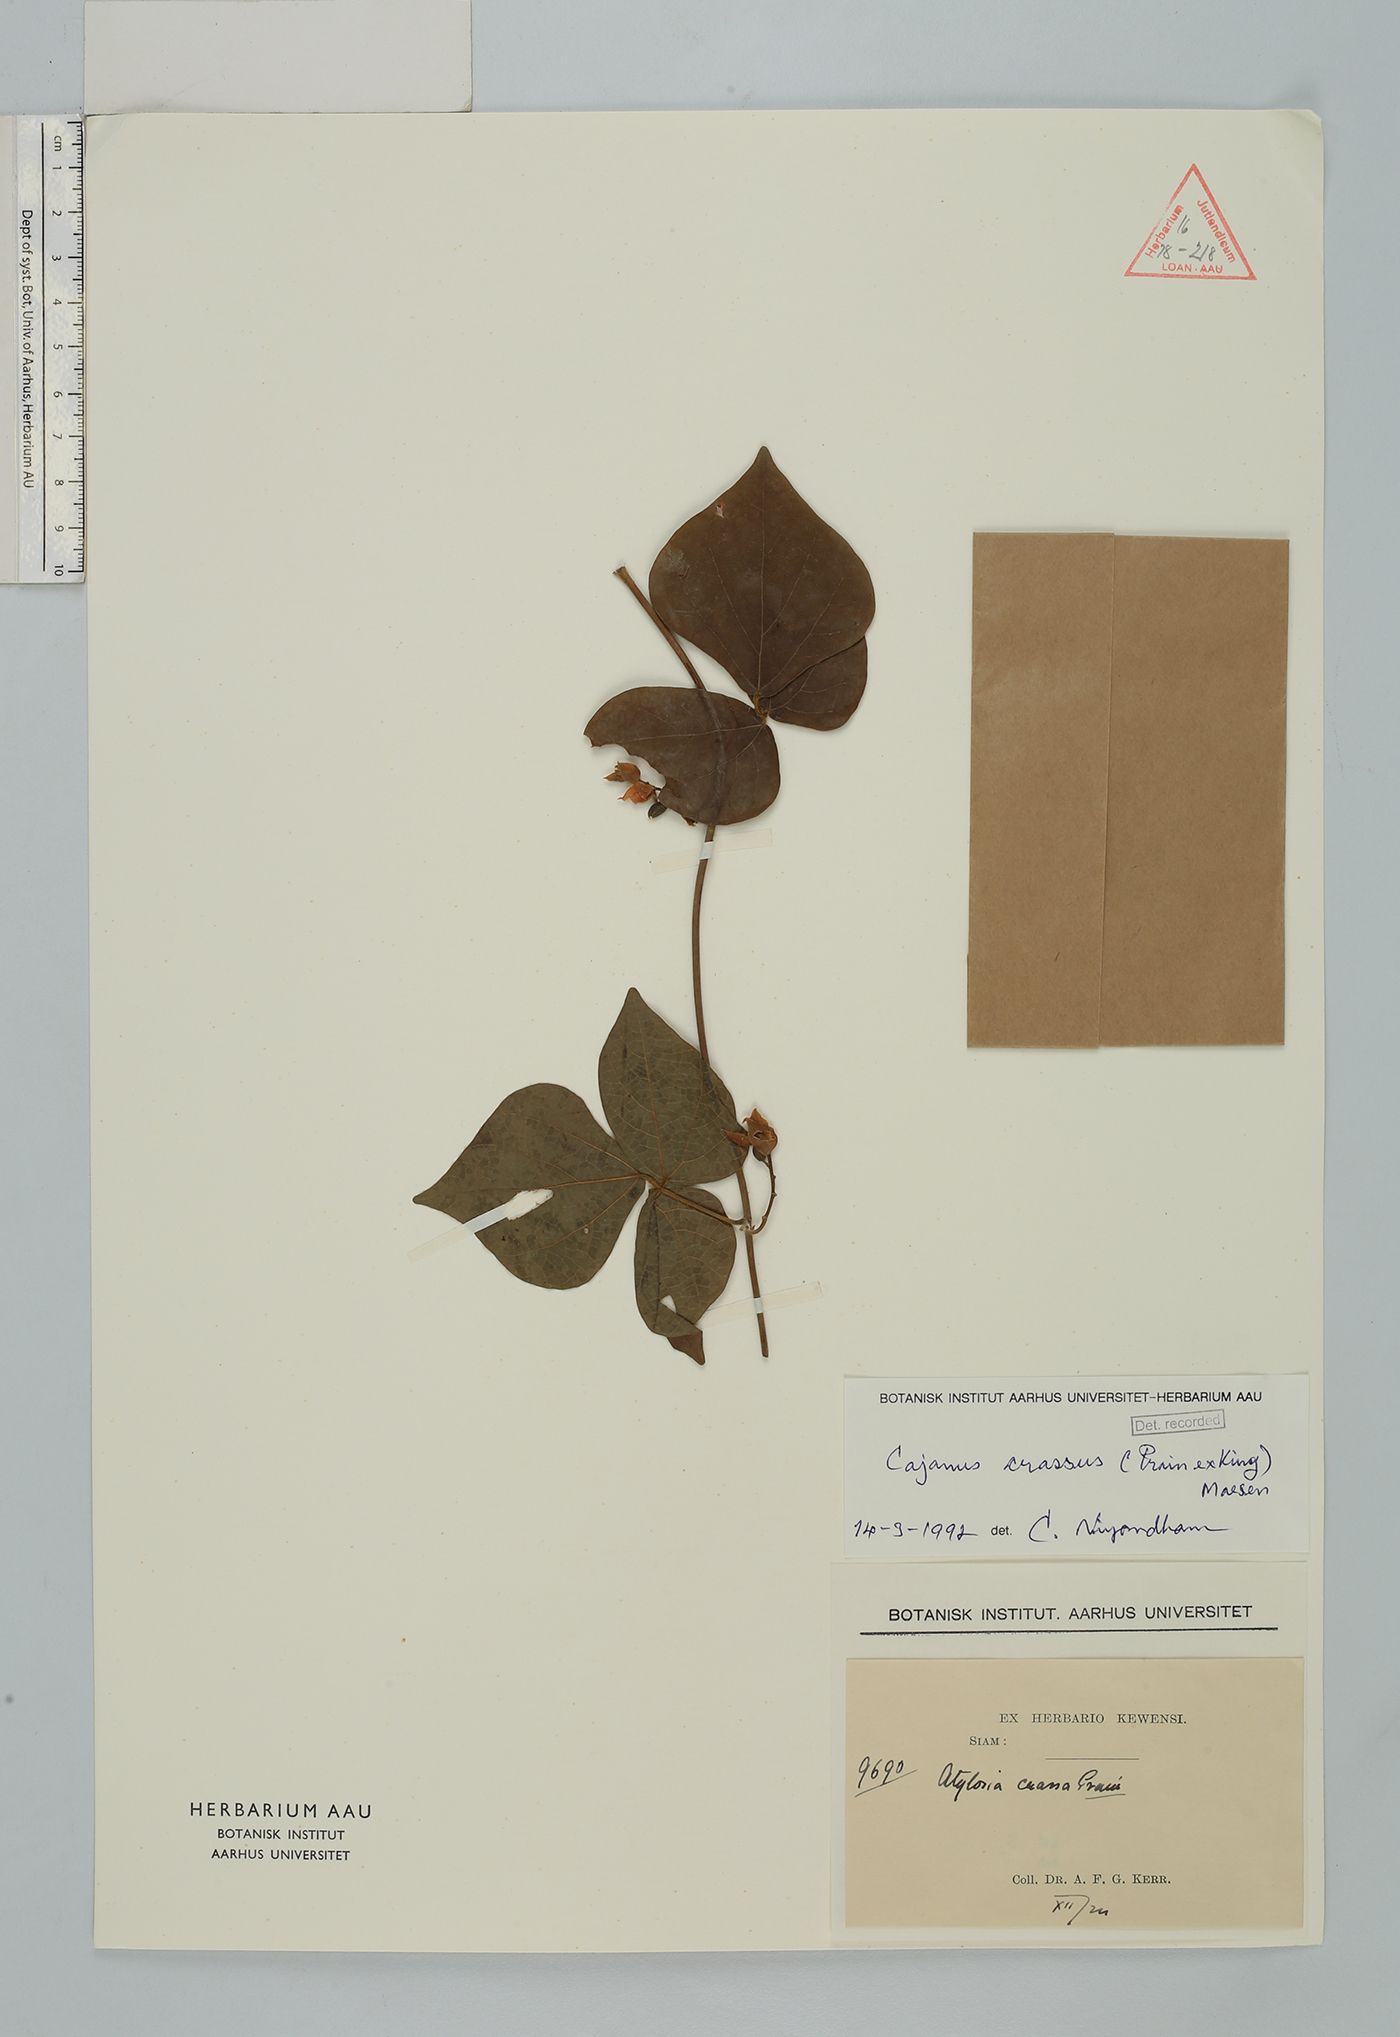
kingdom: Plantae
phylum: Tracheophyta
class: Magnoliopsida
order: Fabales
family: Fabaceae
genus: Cajanus
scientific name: Cajanus crassus
